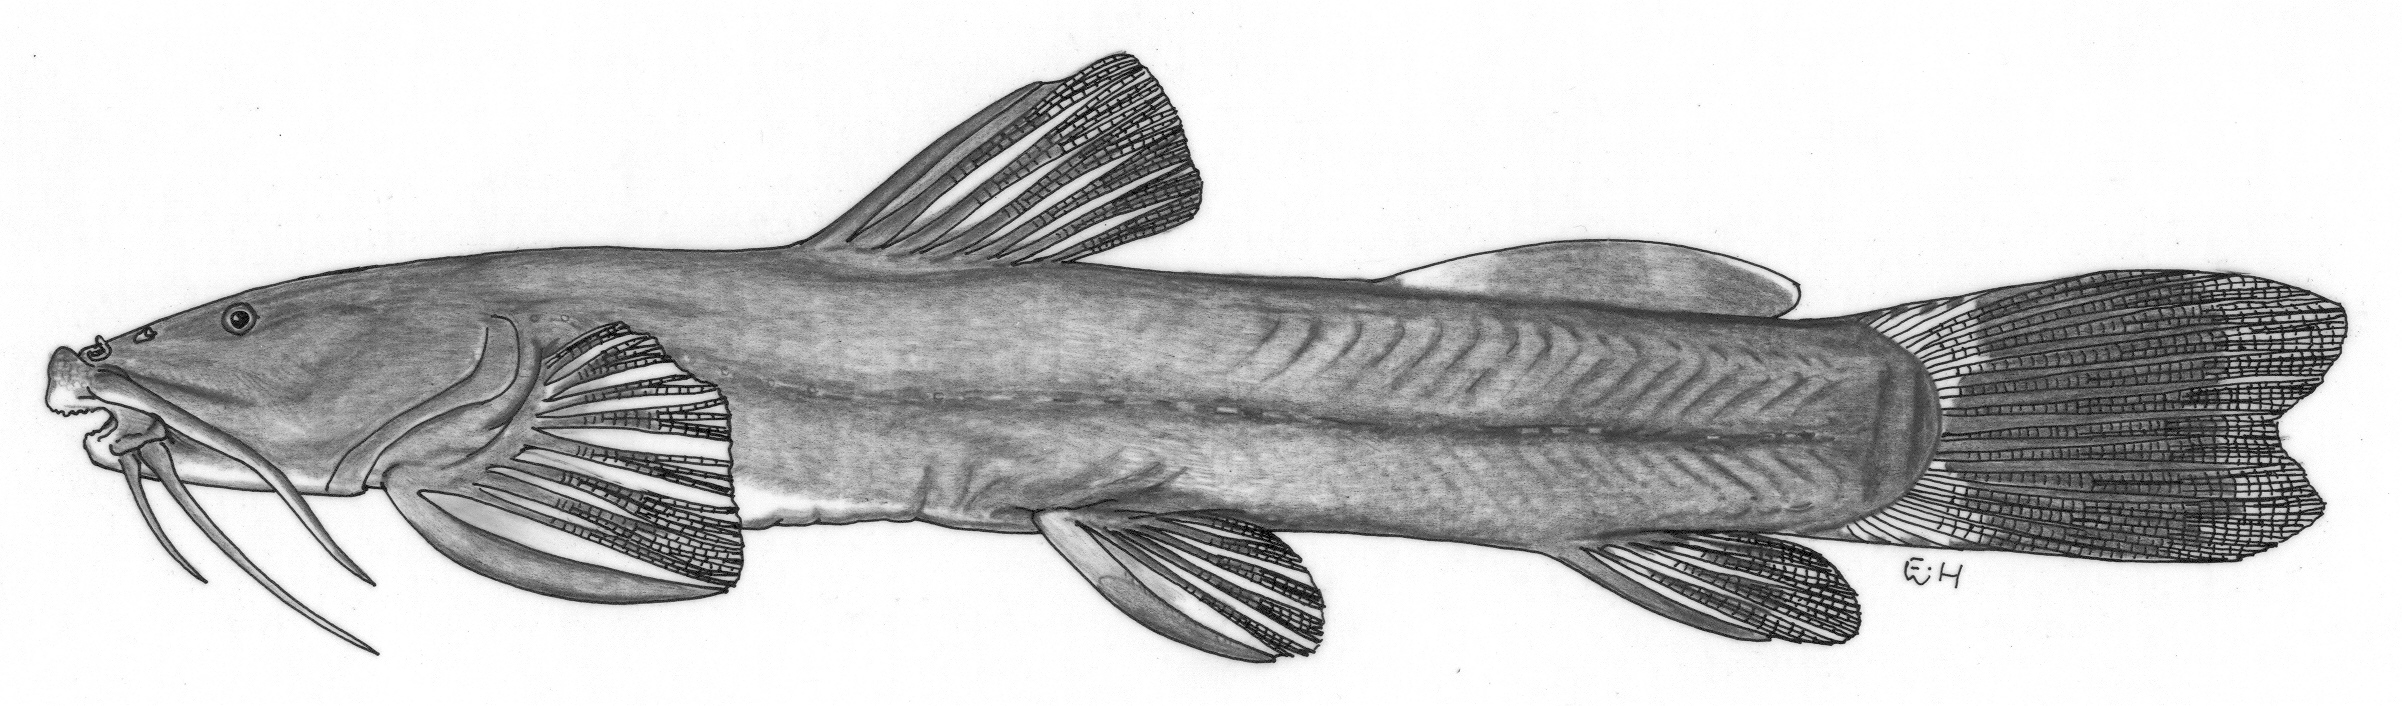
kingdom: Animalia
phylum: Chordata
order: Siluriformes
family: Amphiliidae
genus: Amphilius
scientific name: Amphilius korupi
